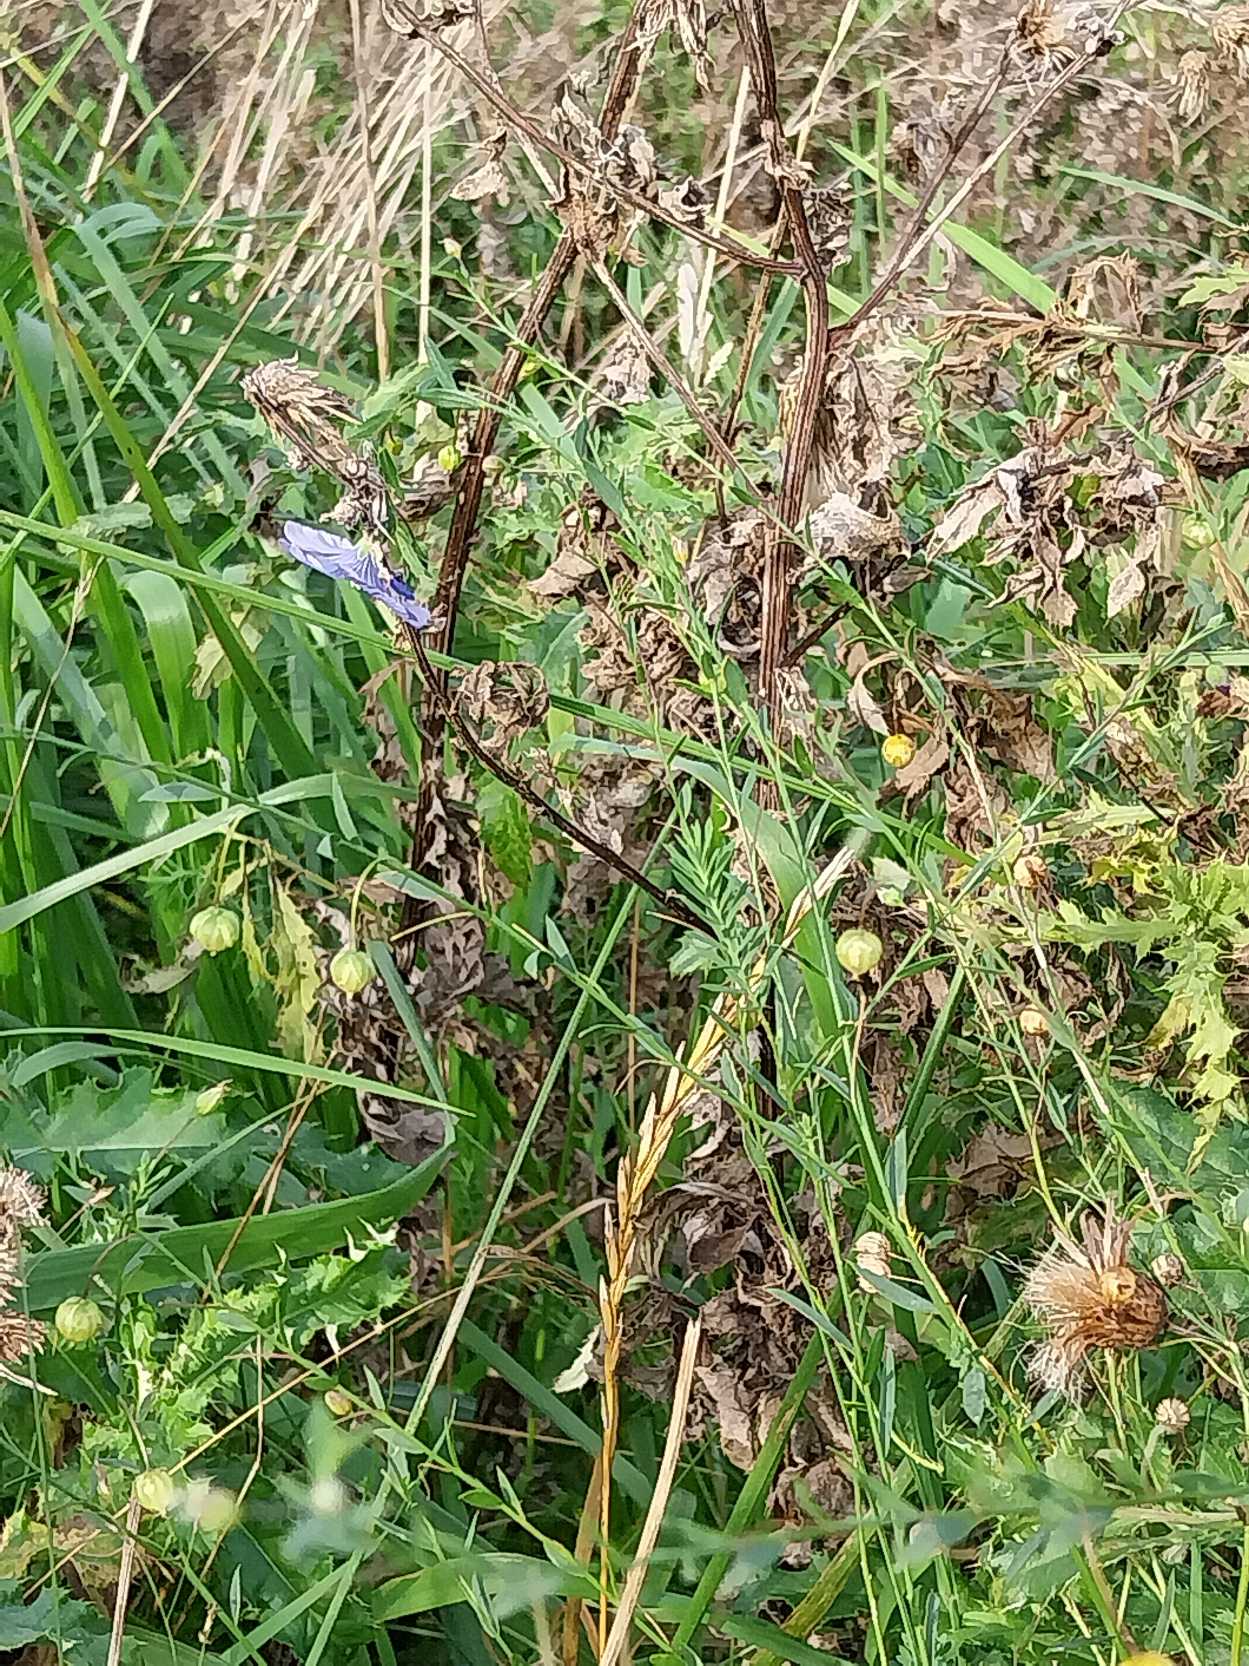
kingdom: Plantae
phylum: Tracheophyta
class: Magnoliopsida
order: Malpighiales
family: Linaceae
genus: Linum
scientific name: Linum austriacum
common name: Østrigsk hør
